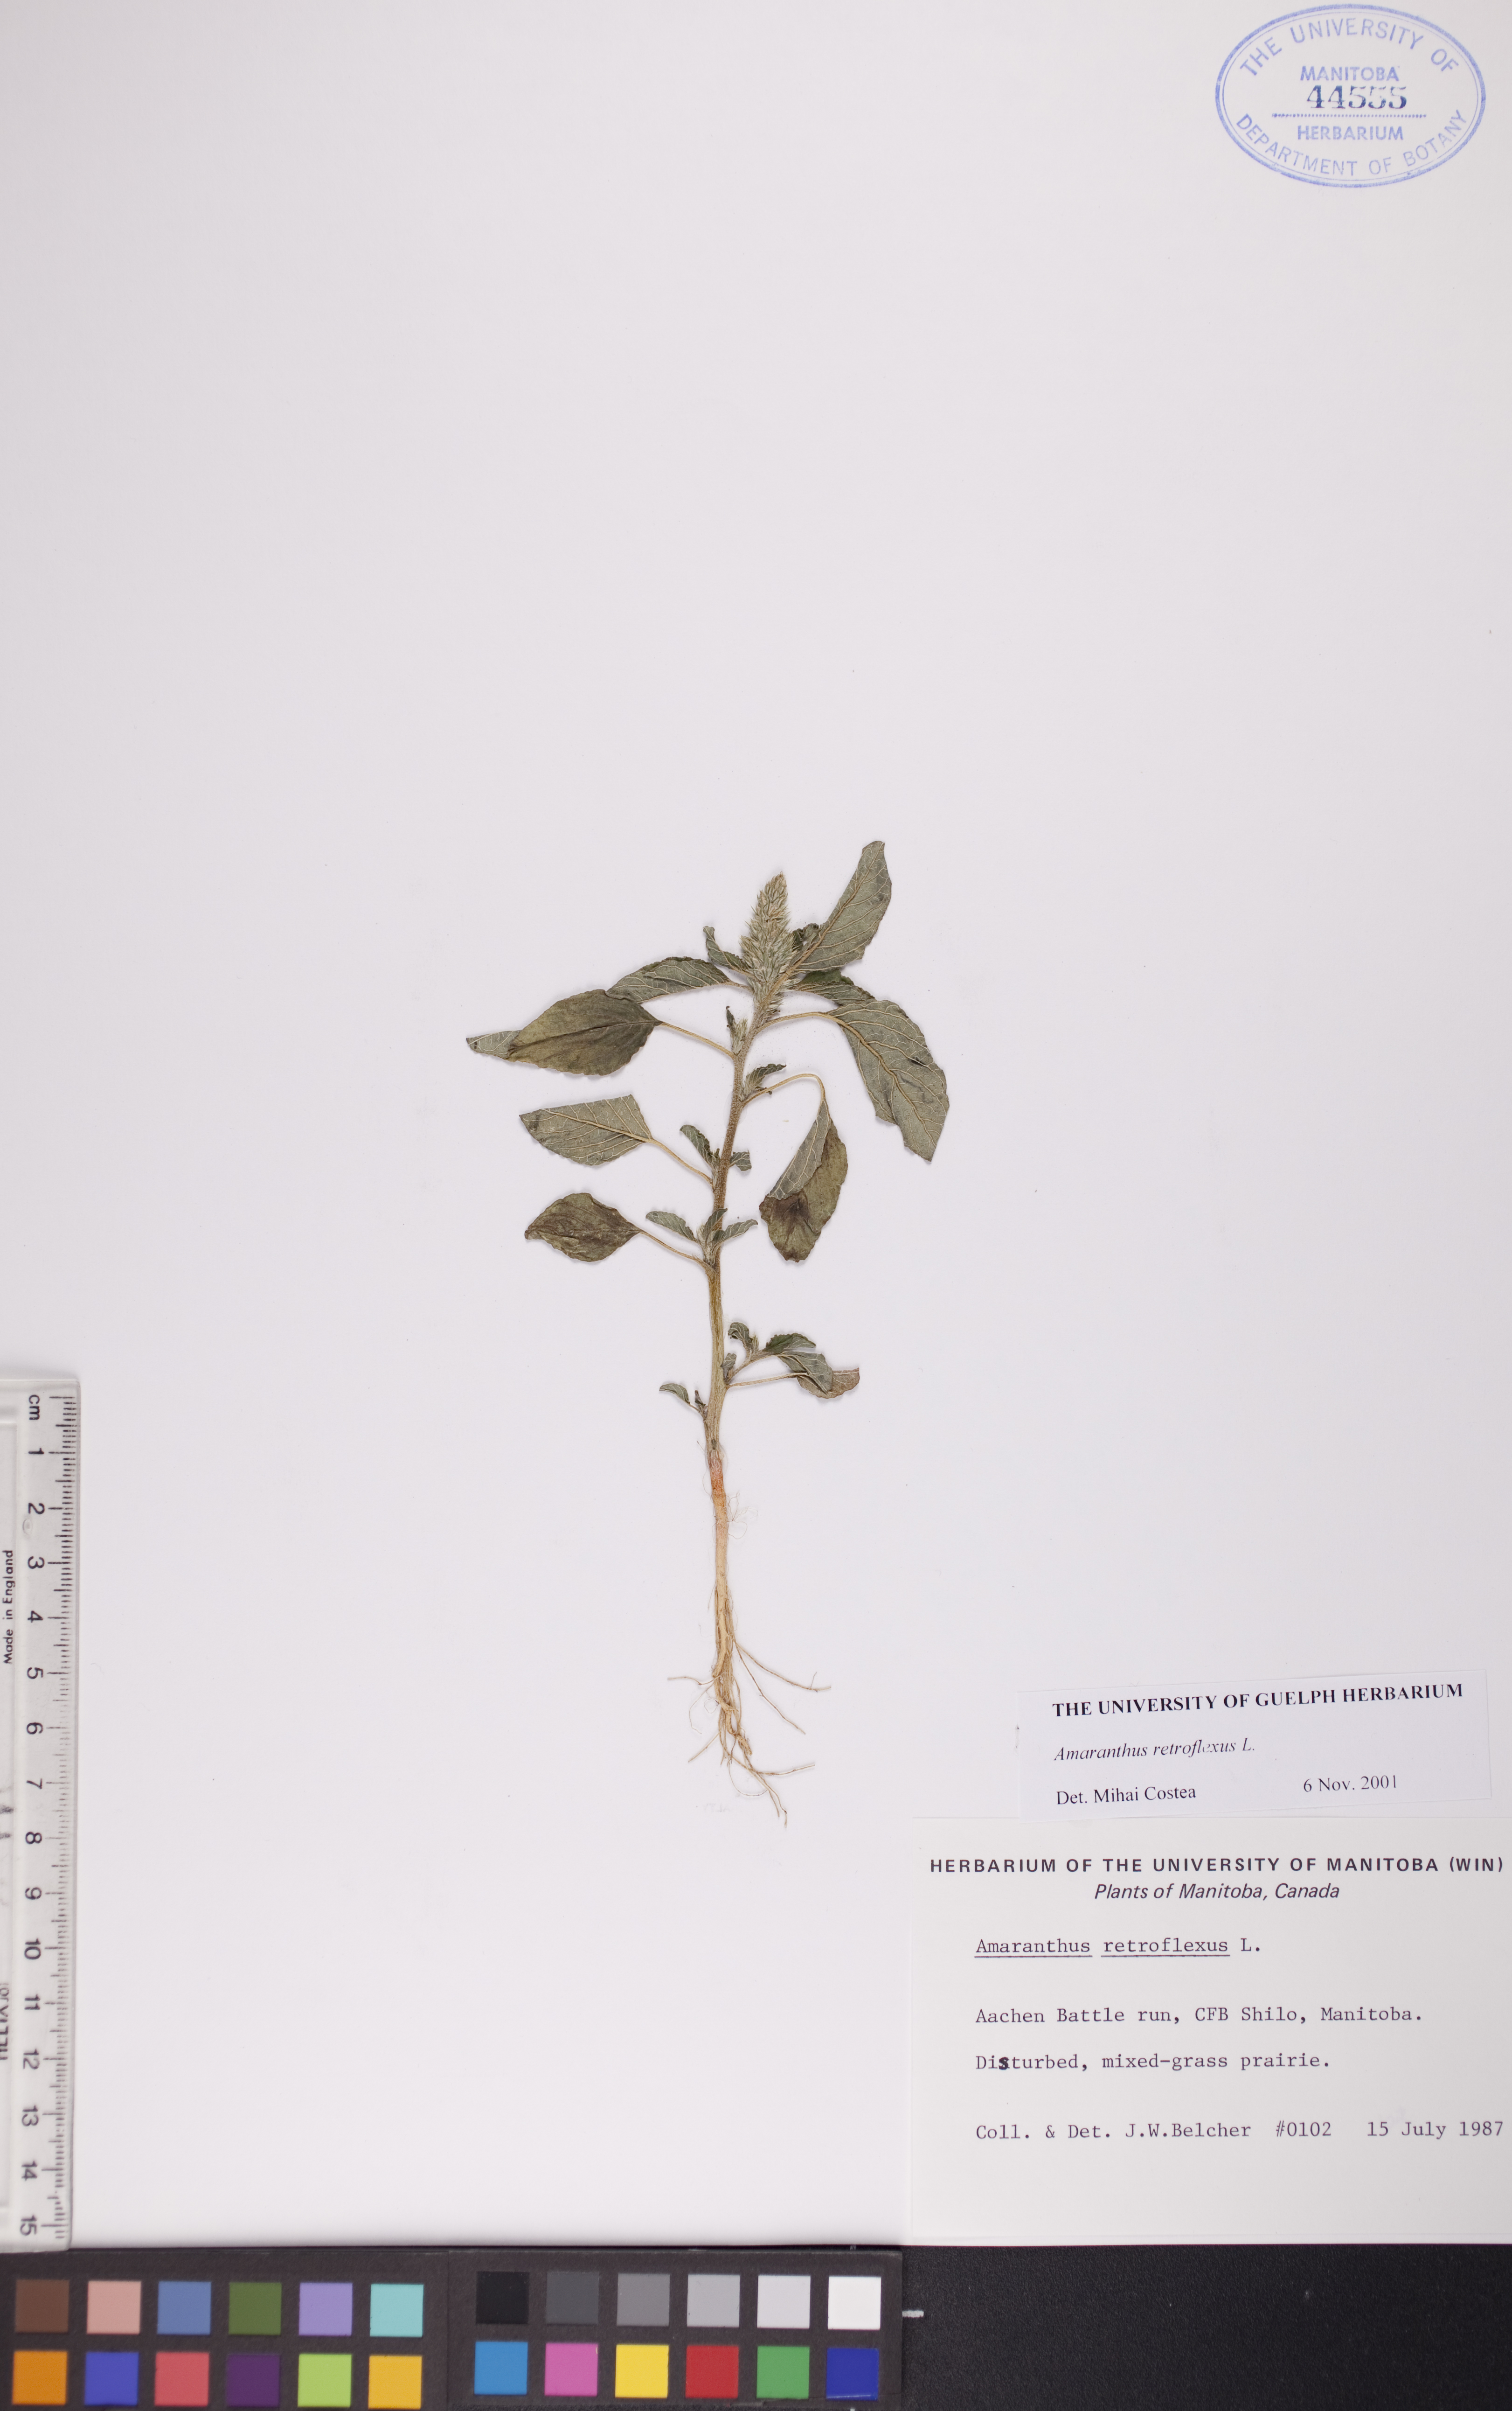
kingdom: Plantae
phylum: Tracheophyta
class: Magnoliopsida
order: Caryophyllales
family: Amaranthaceae
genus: Amaranthus
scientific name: Amaranthus retroflexus
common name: Redroot amaranth
